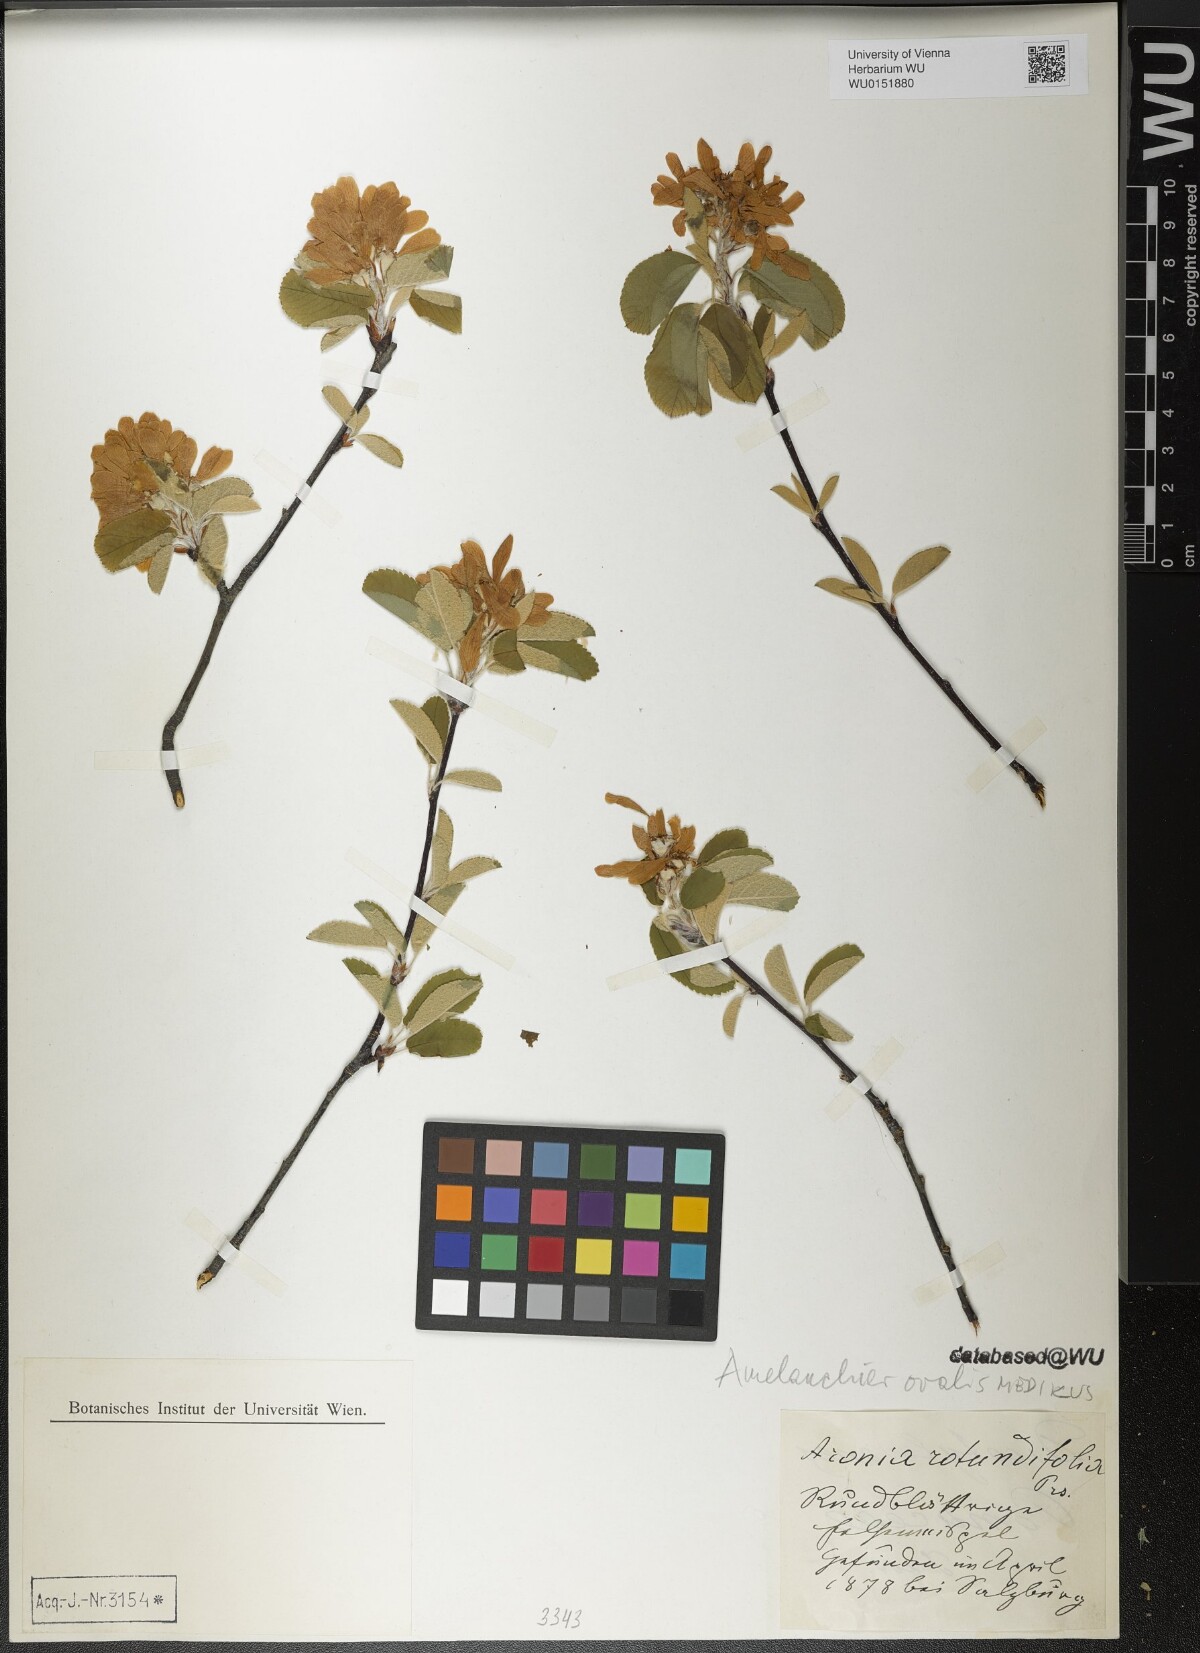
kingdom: Plantae
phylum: Tracheophyta
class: Magnoliopsida
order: Rosales
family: Rosaceae
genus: Amelanchier
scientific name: Amelanchier ovalis
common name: Serviceberry
